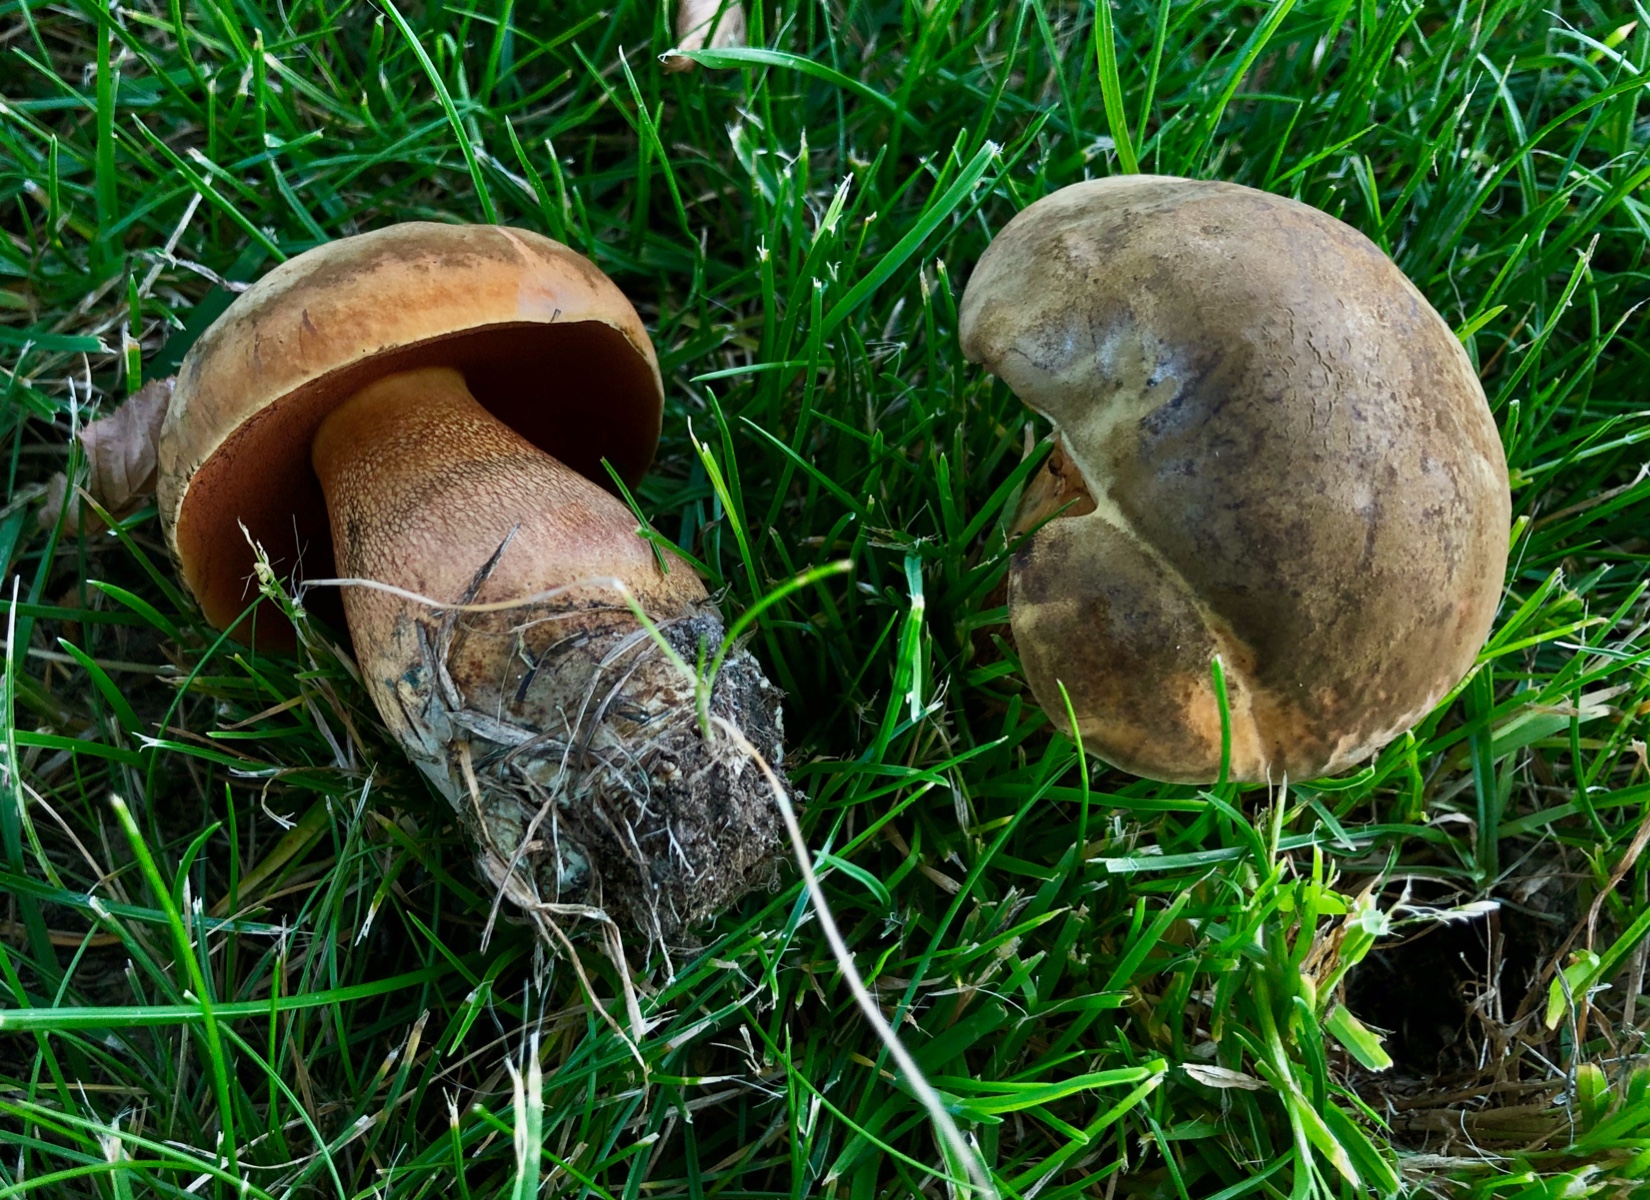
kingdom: Fungi
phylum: Basidiomycota
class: Agaricomycetes
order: Boletales
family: Boletaceae
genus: Suillellus
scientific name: Suillellus luridus
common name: netstokket indigorørhat
